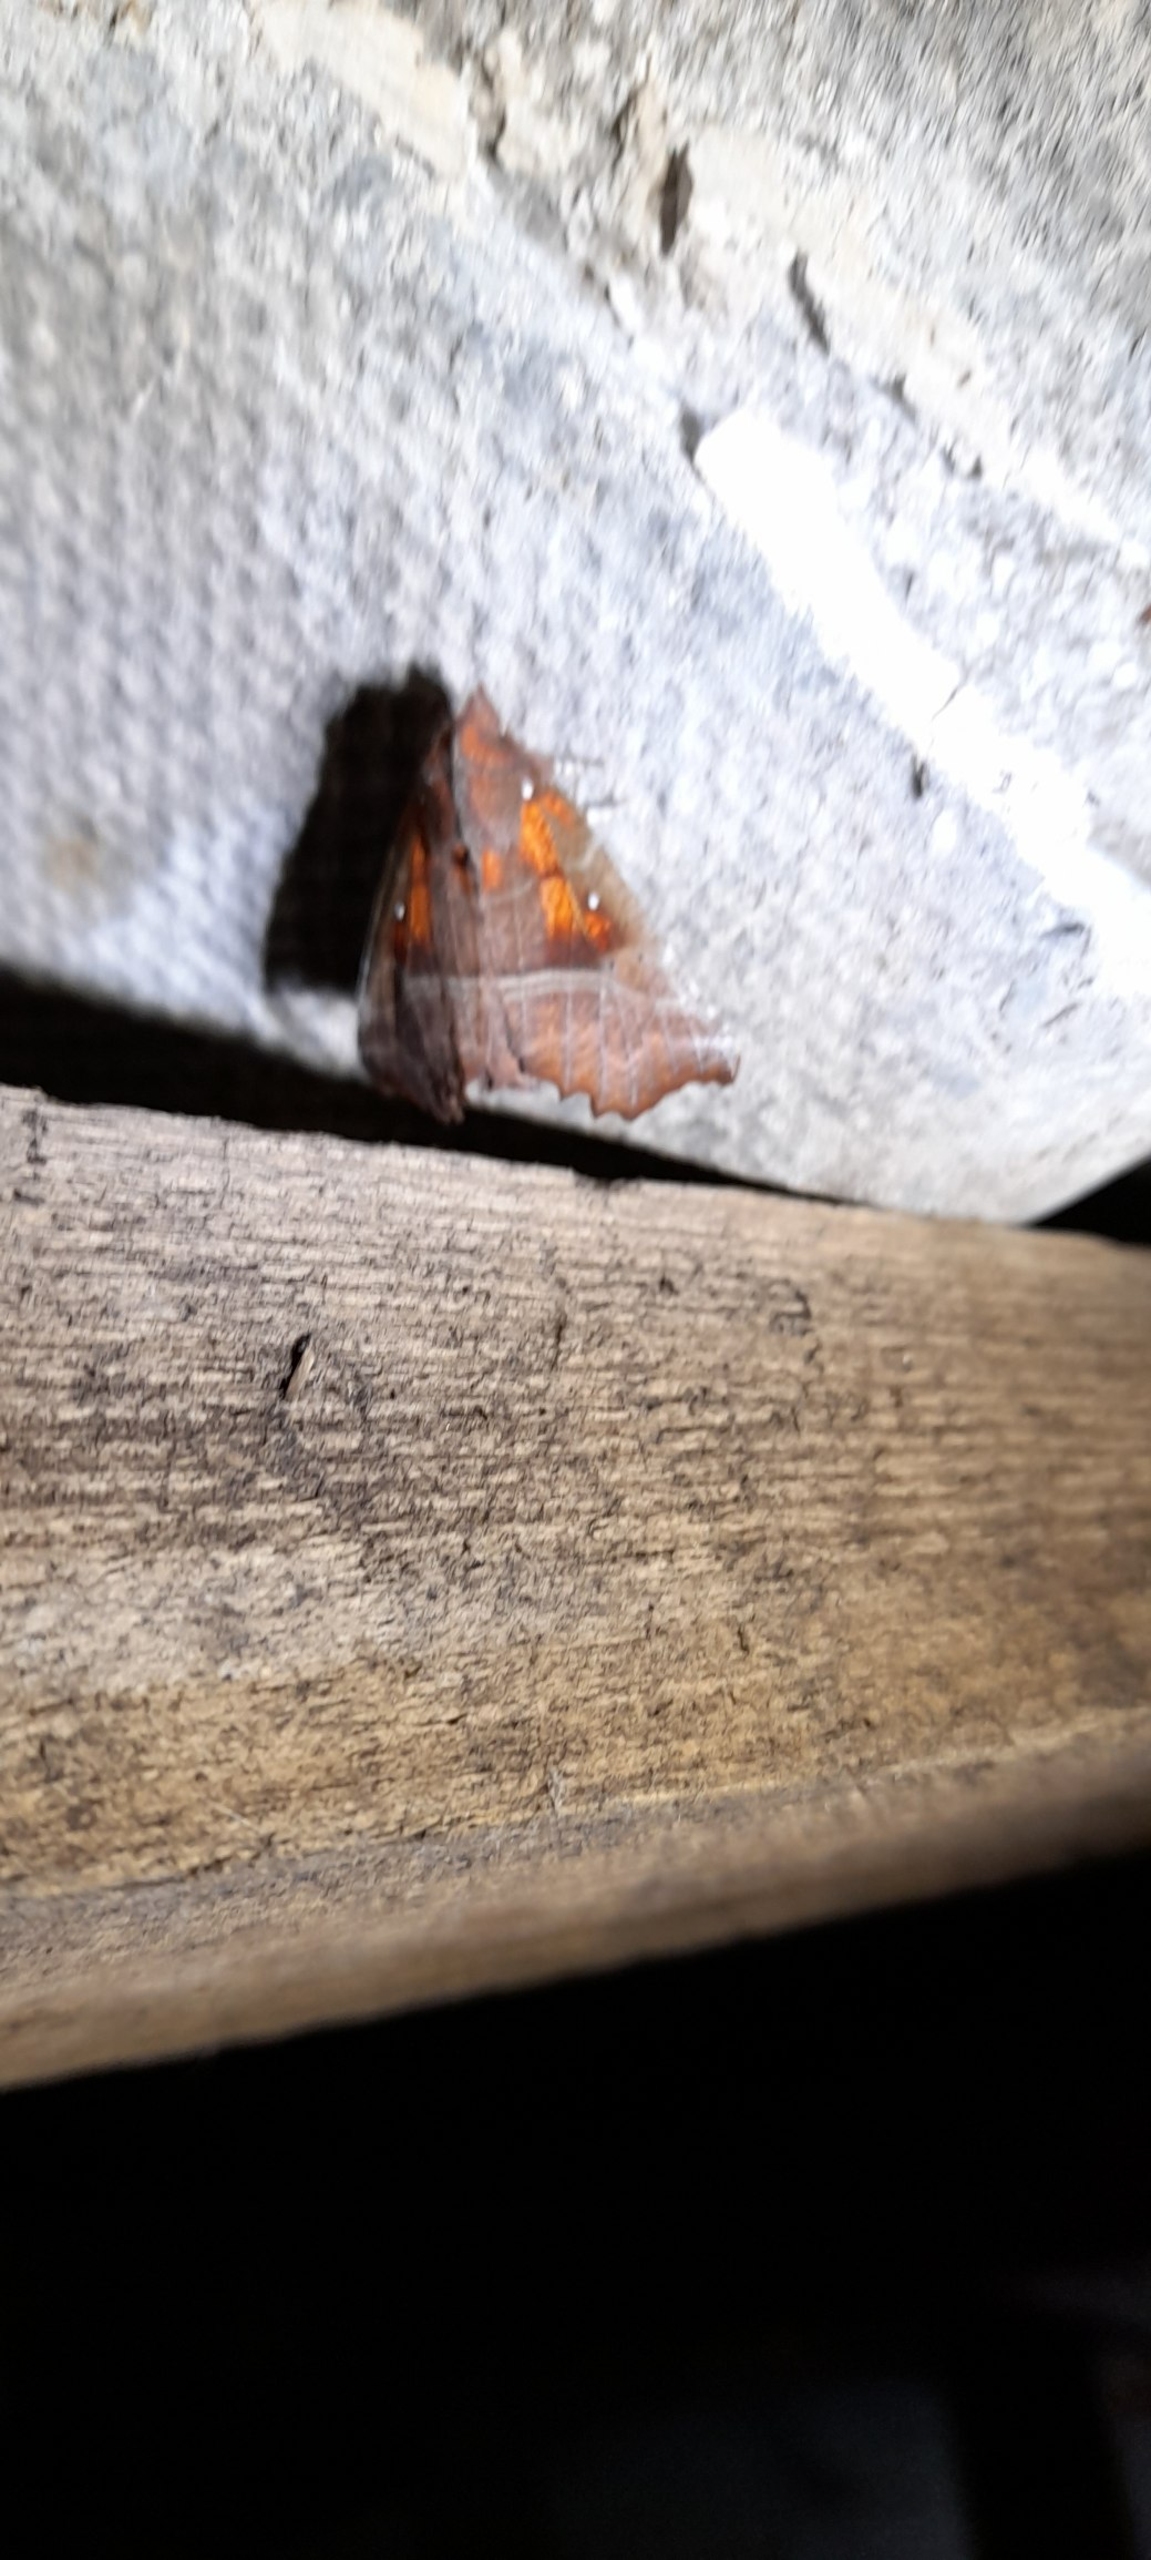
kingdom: Animalia
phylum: Arthropoda
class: Insecta
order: Lepidoptera
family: Erebidae
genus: Scoliopteryx
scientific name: Scoliopteryx libatrix
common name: Husmoderugle
